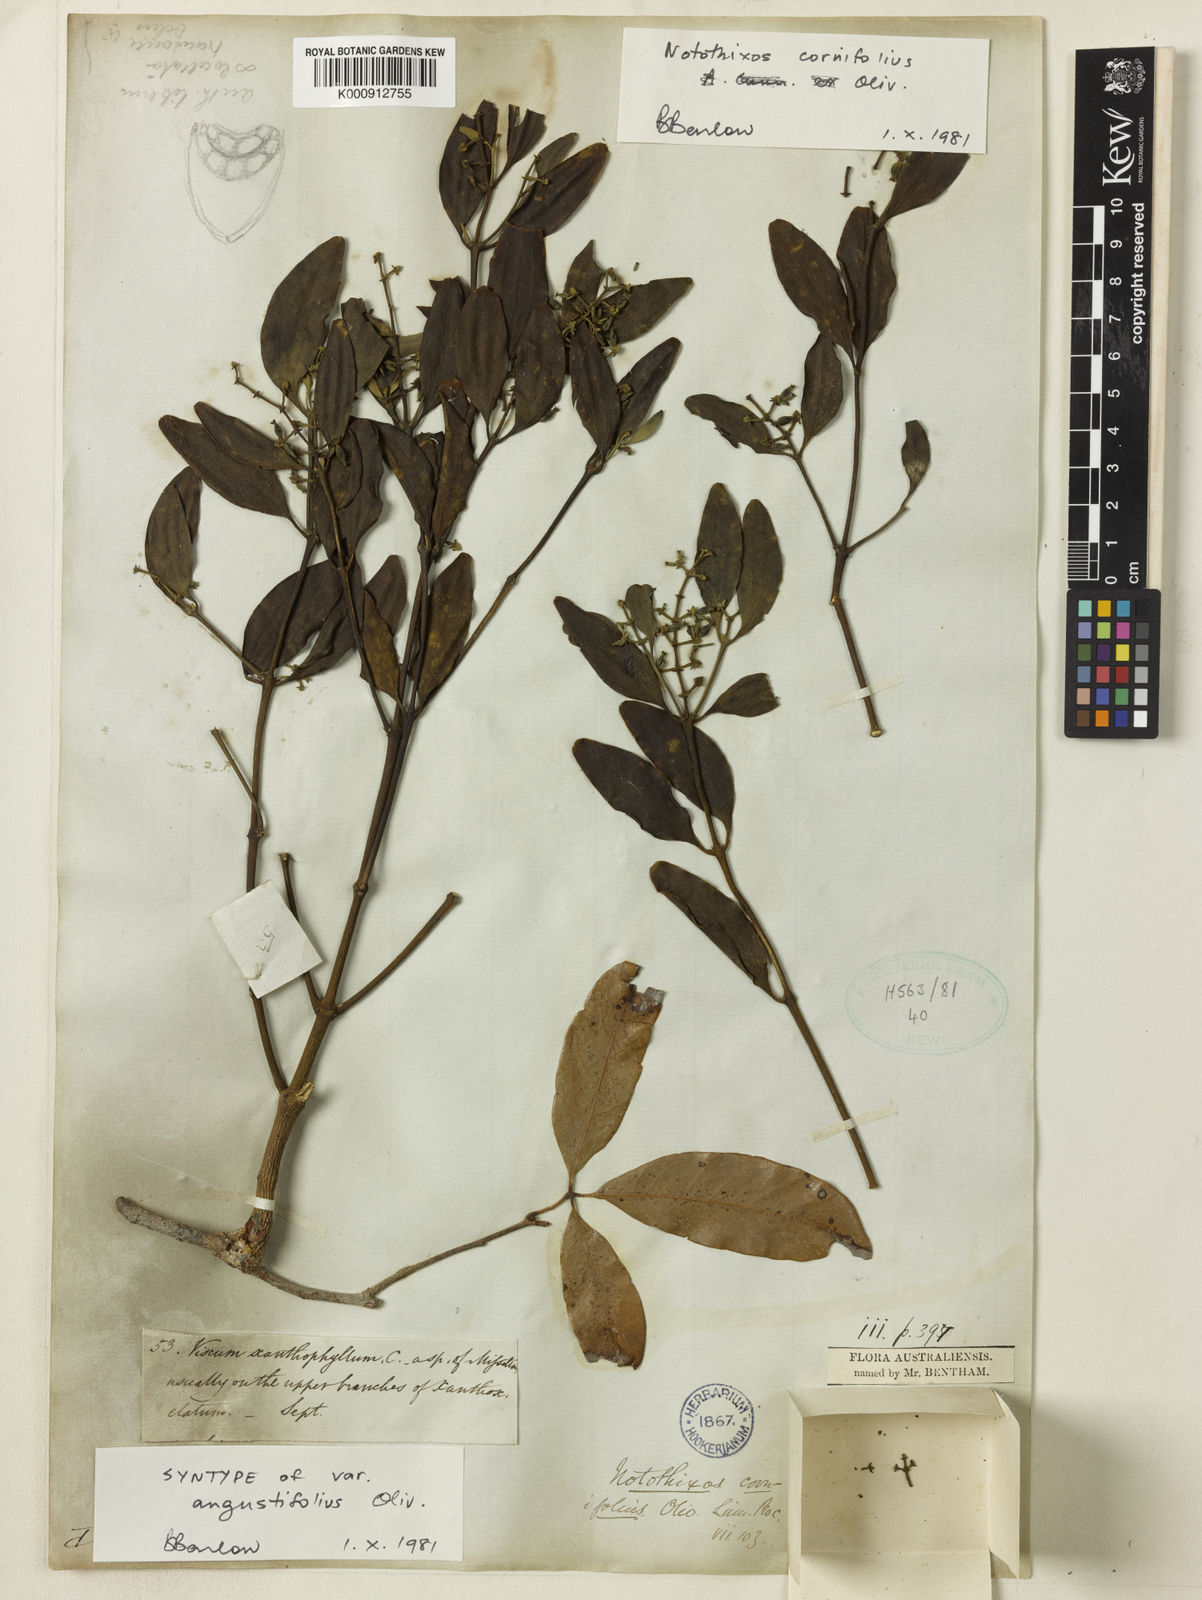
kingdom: Plantae
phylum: Tracheophyta
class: Magnoliopsida
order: Santalales
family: Viscaceae
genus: Notothixos
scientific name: Notothixos cornifolius
